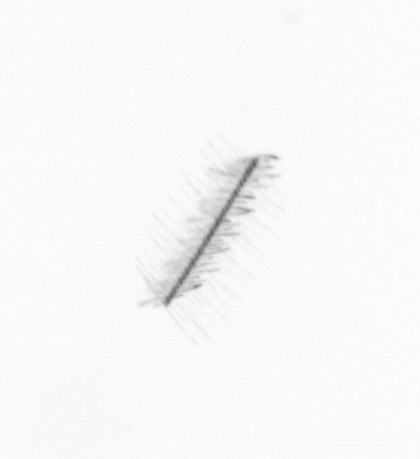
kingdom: Chromista
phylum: Ochrophyta
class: Bacillariophyceae
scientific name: Bacillariophyceae
